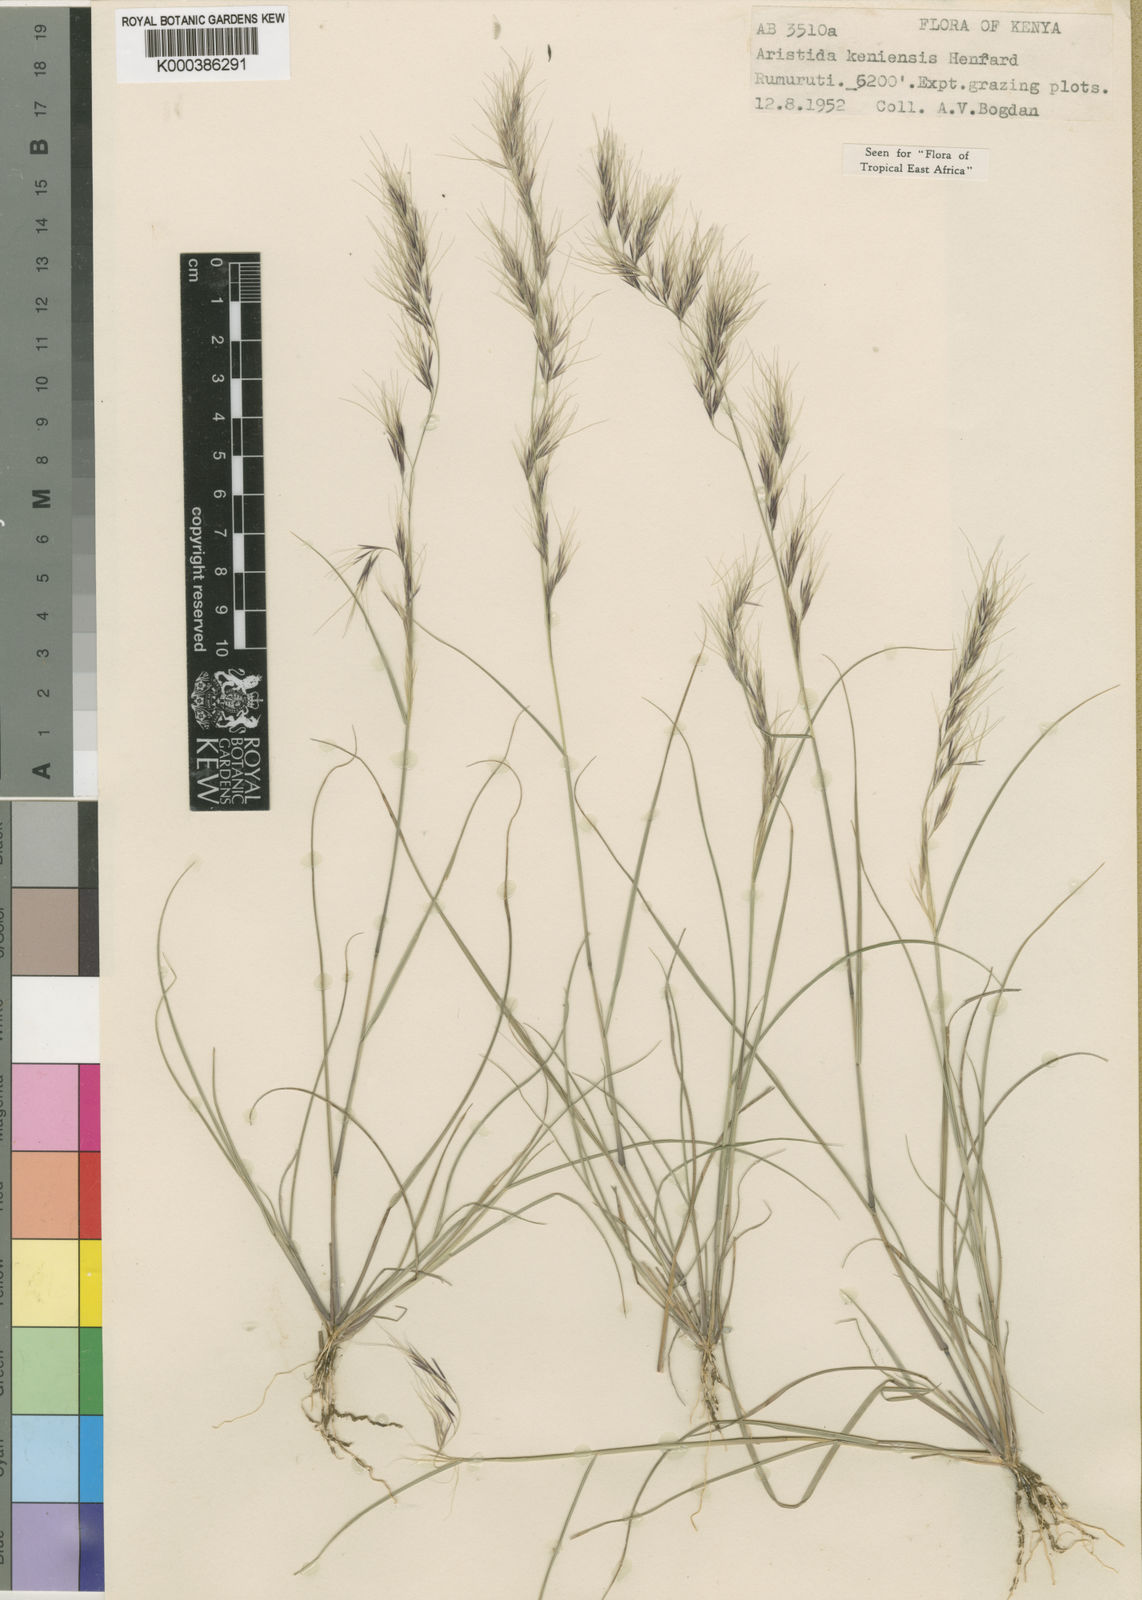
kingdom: Plantae
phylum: Tracheophyta
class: Liliopsida
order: Poales
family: Poaceae
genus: Aristida
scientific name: Aristida kenyensis
